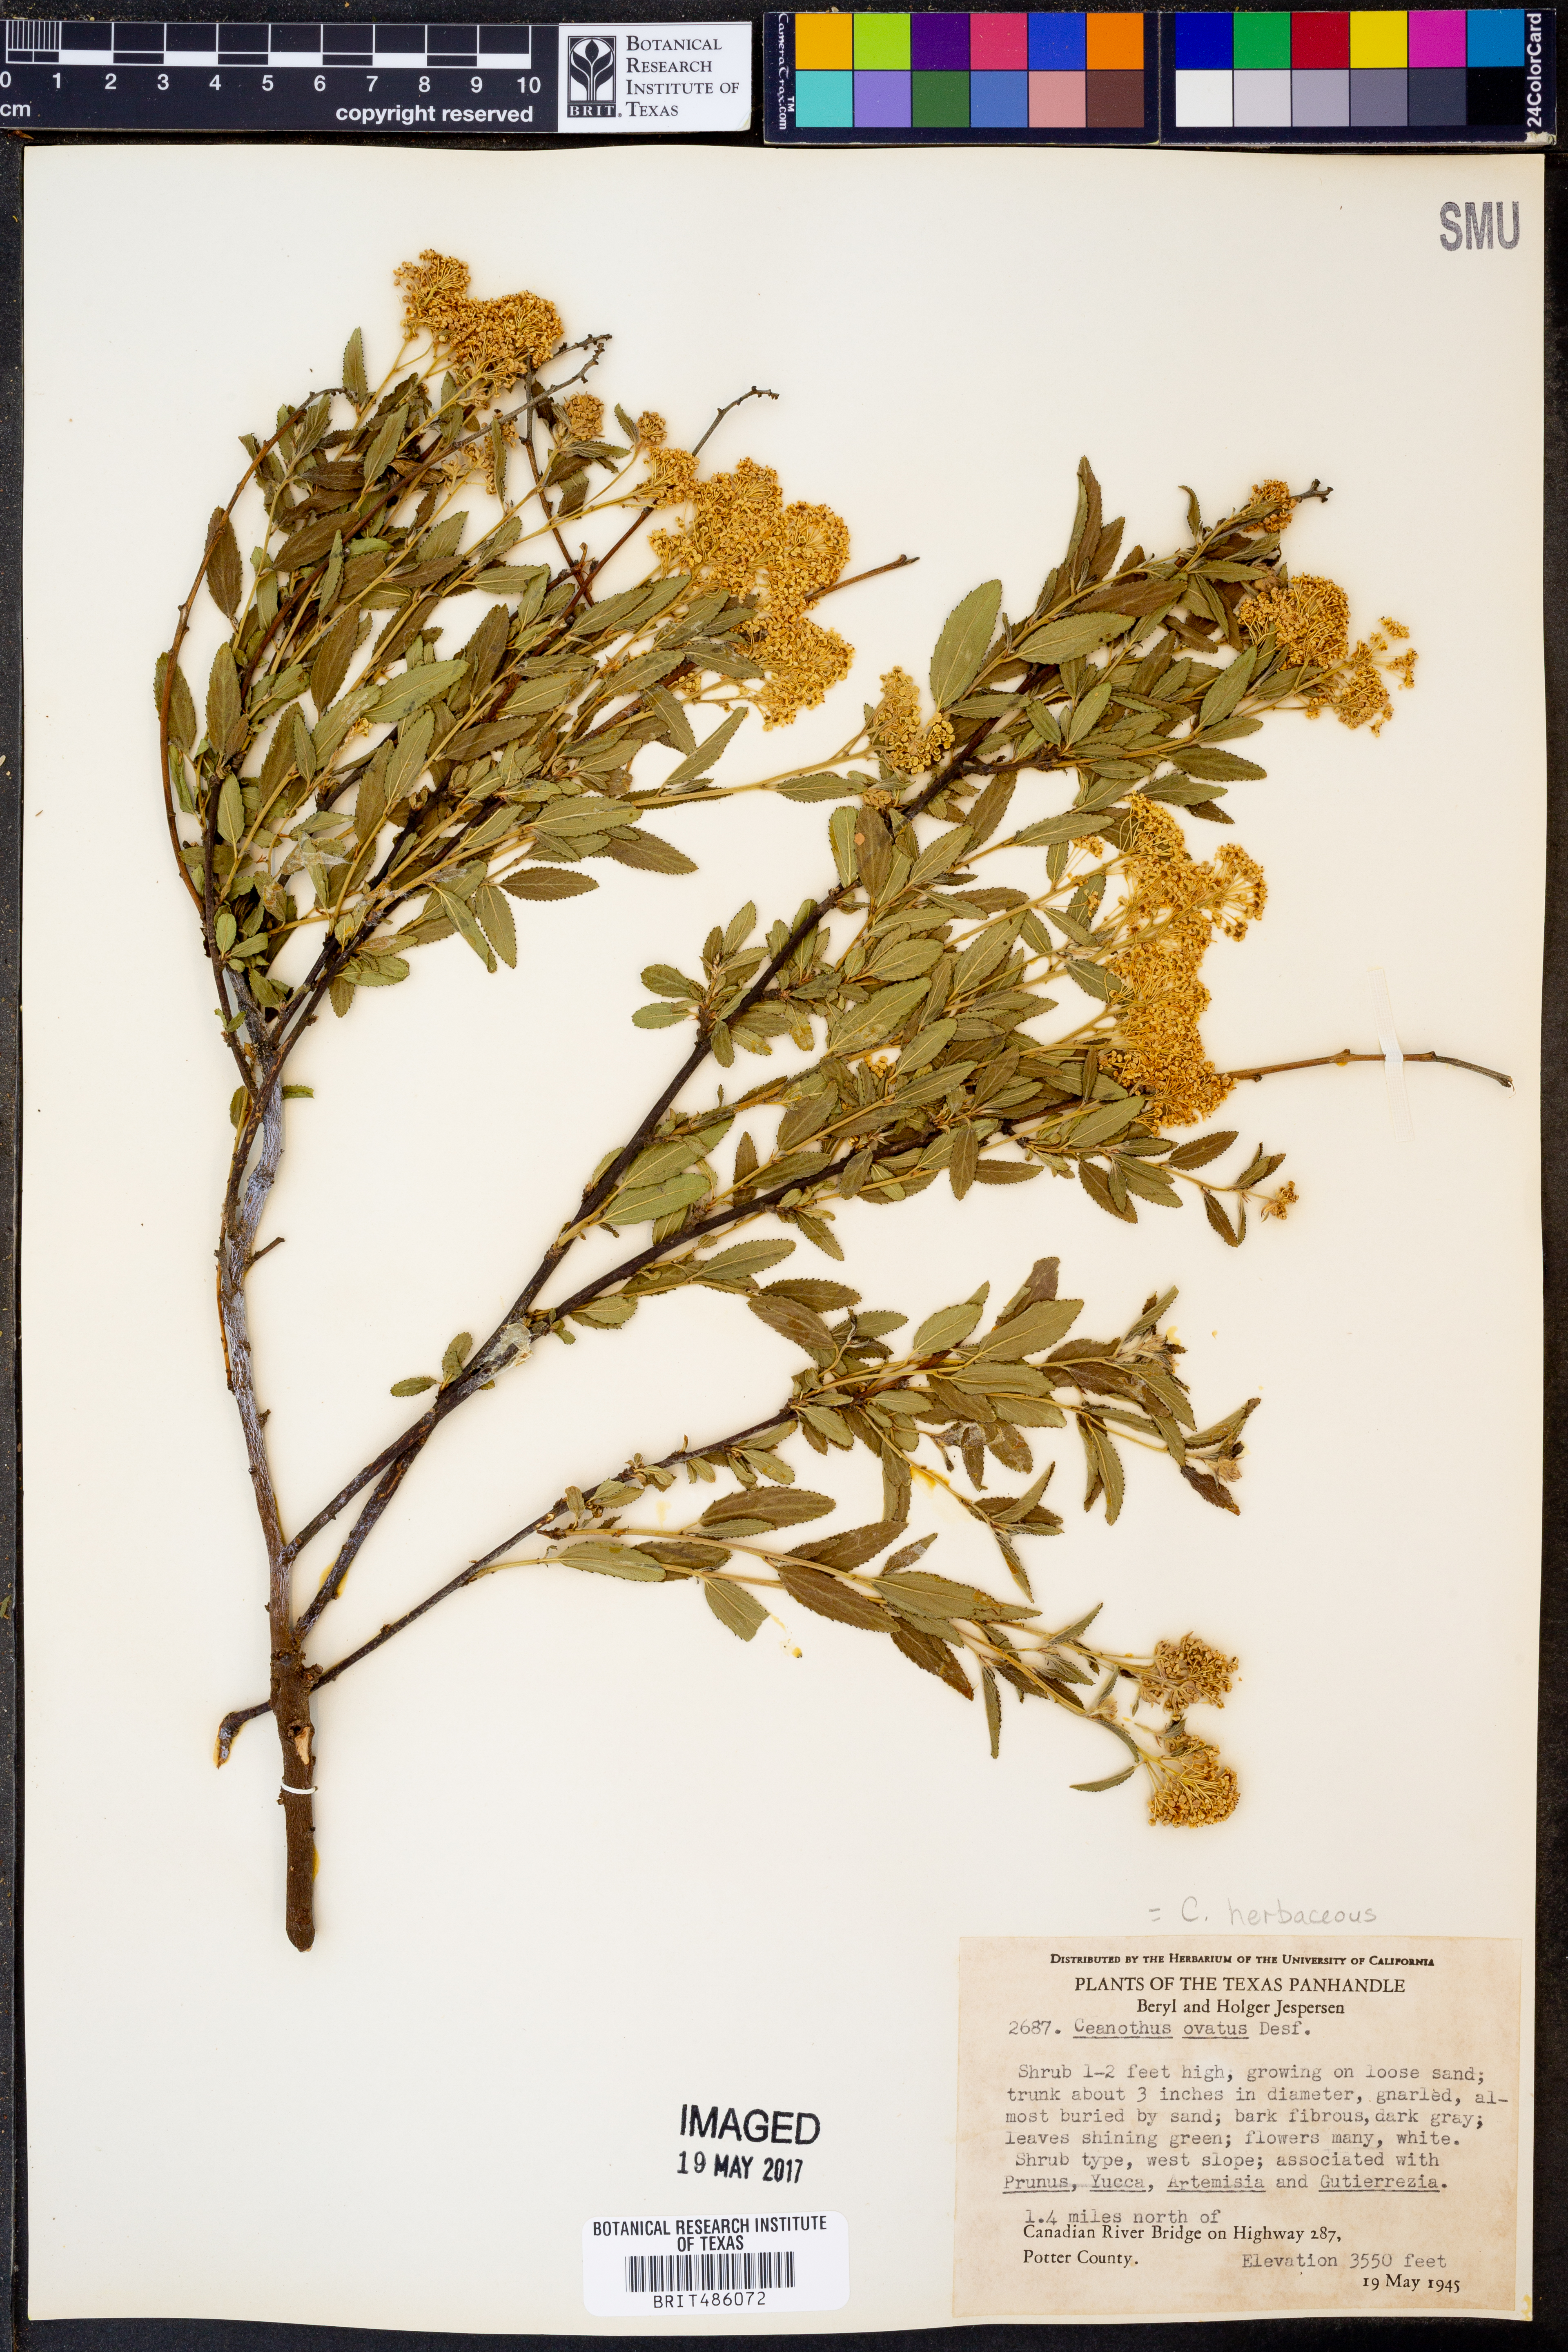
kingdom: Plantae
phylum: Tracheophyta
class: Magnoliopsida
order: Rosales
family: Rhamnaceae
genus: Ceanothus
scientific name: Ceanothus herbaceus
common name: Inland ceanothus
